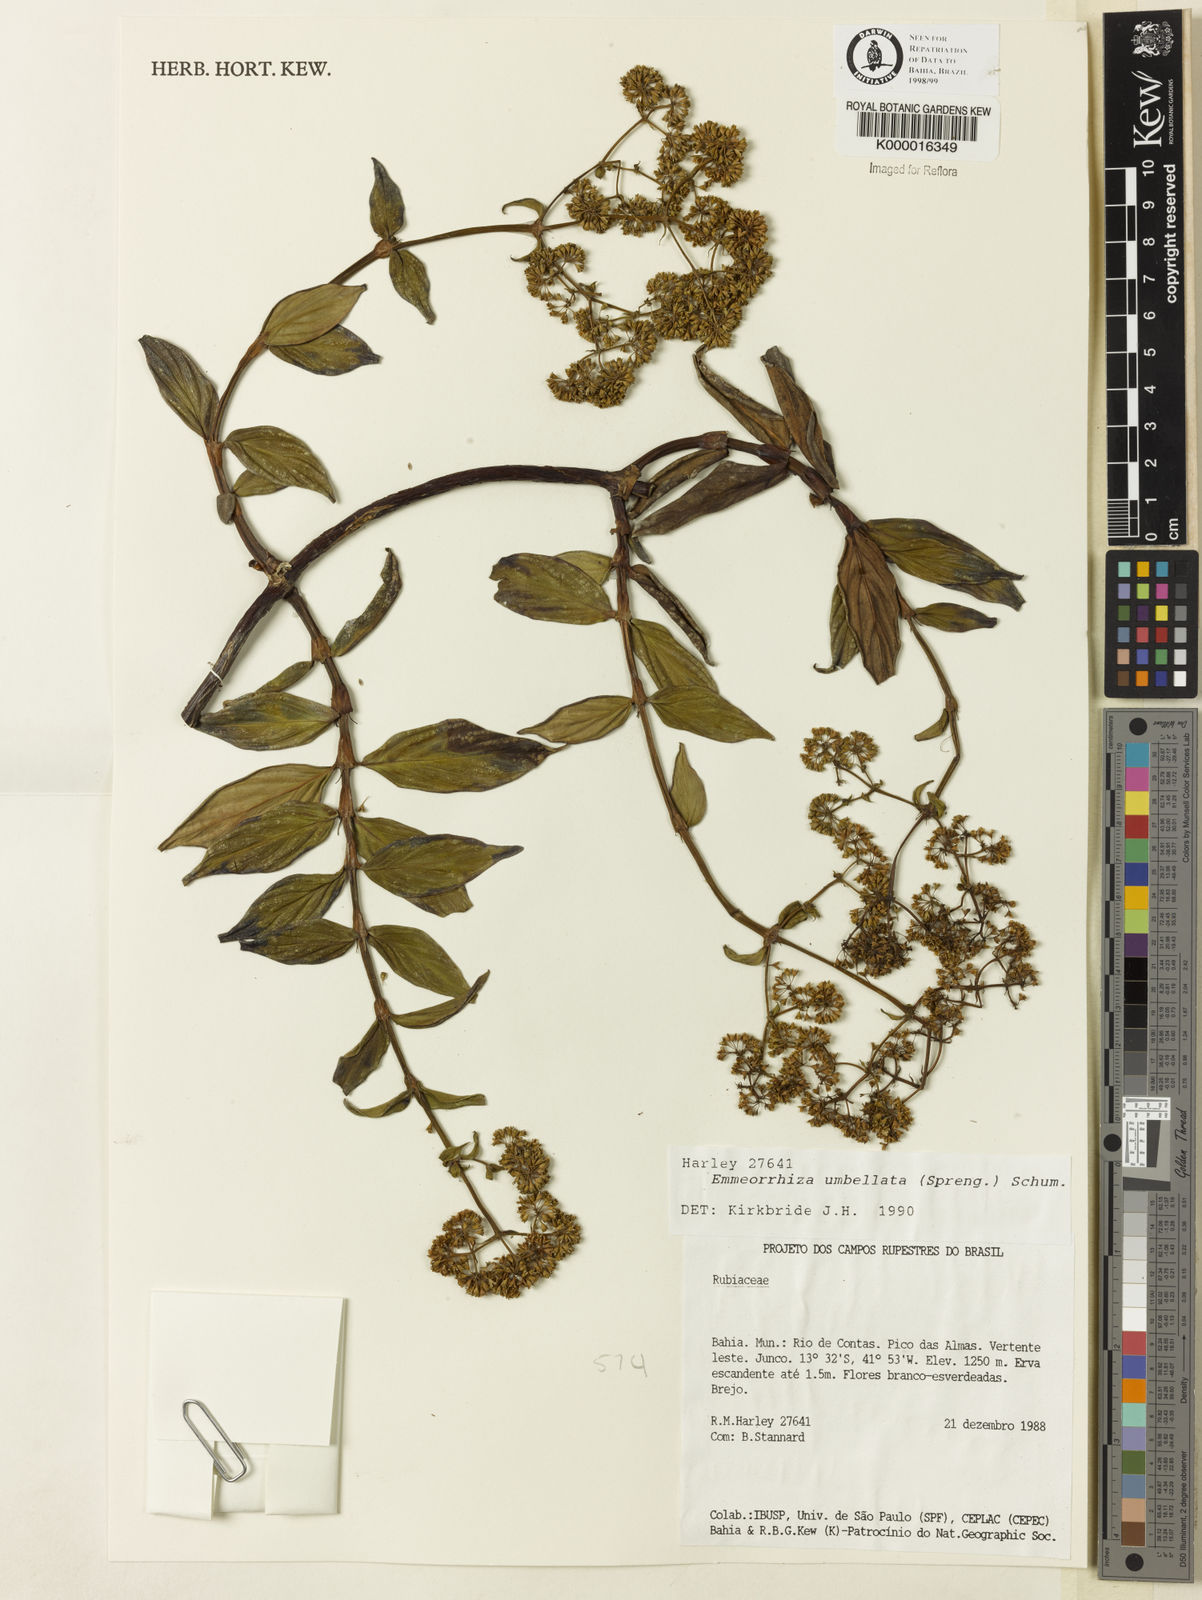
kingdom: Plantae
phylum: Tracheophyta
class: Magnoliopsida
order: Gentianales
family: Rubiaceae
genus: Emmeorhiza
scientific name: Emmeorhiza umbellata
